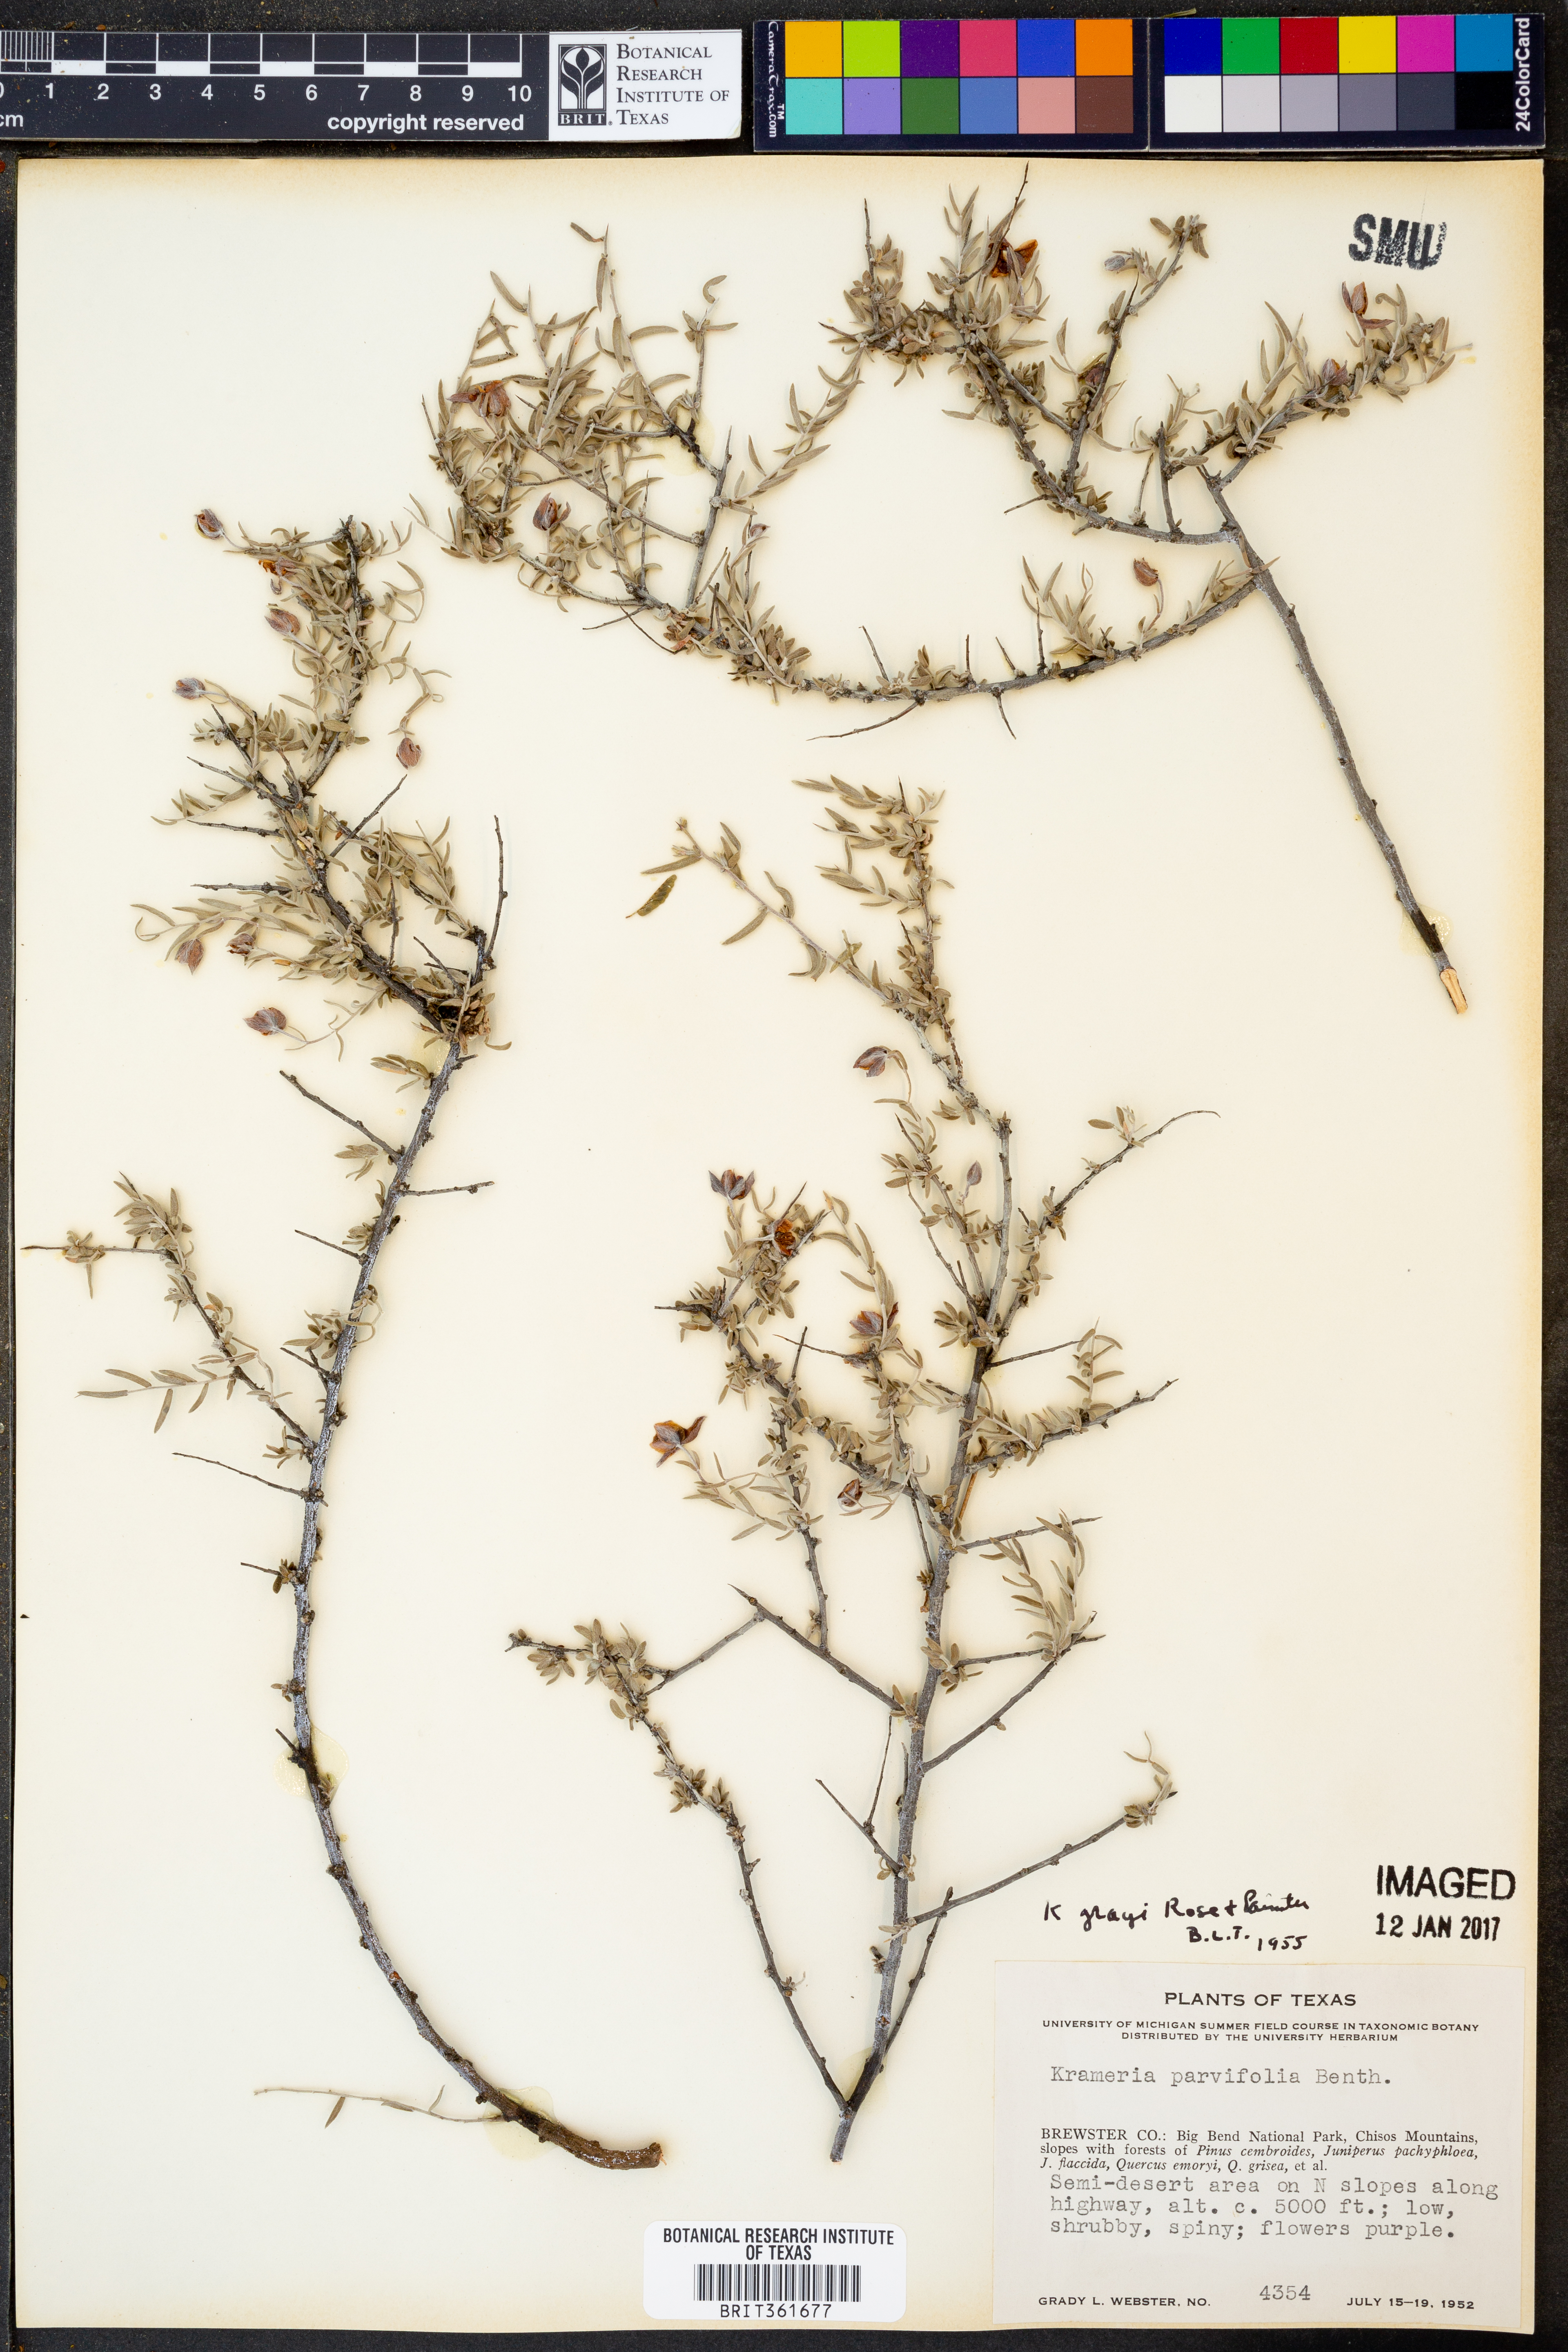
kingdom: Plantae
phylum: Tracheophyta
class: Magnoliopsida
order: Zygophyllales
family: Krameriaceae
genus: Krameria
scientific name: Krameria bicolor
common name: White ratany
